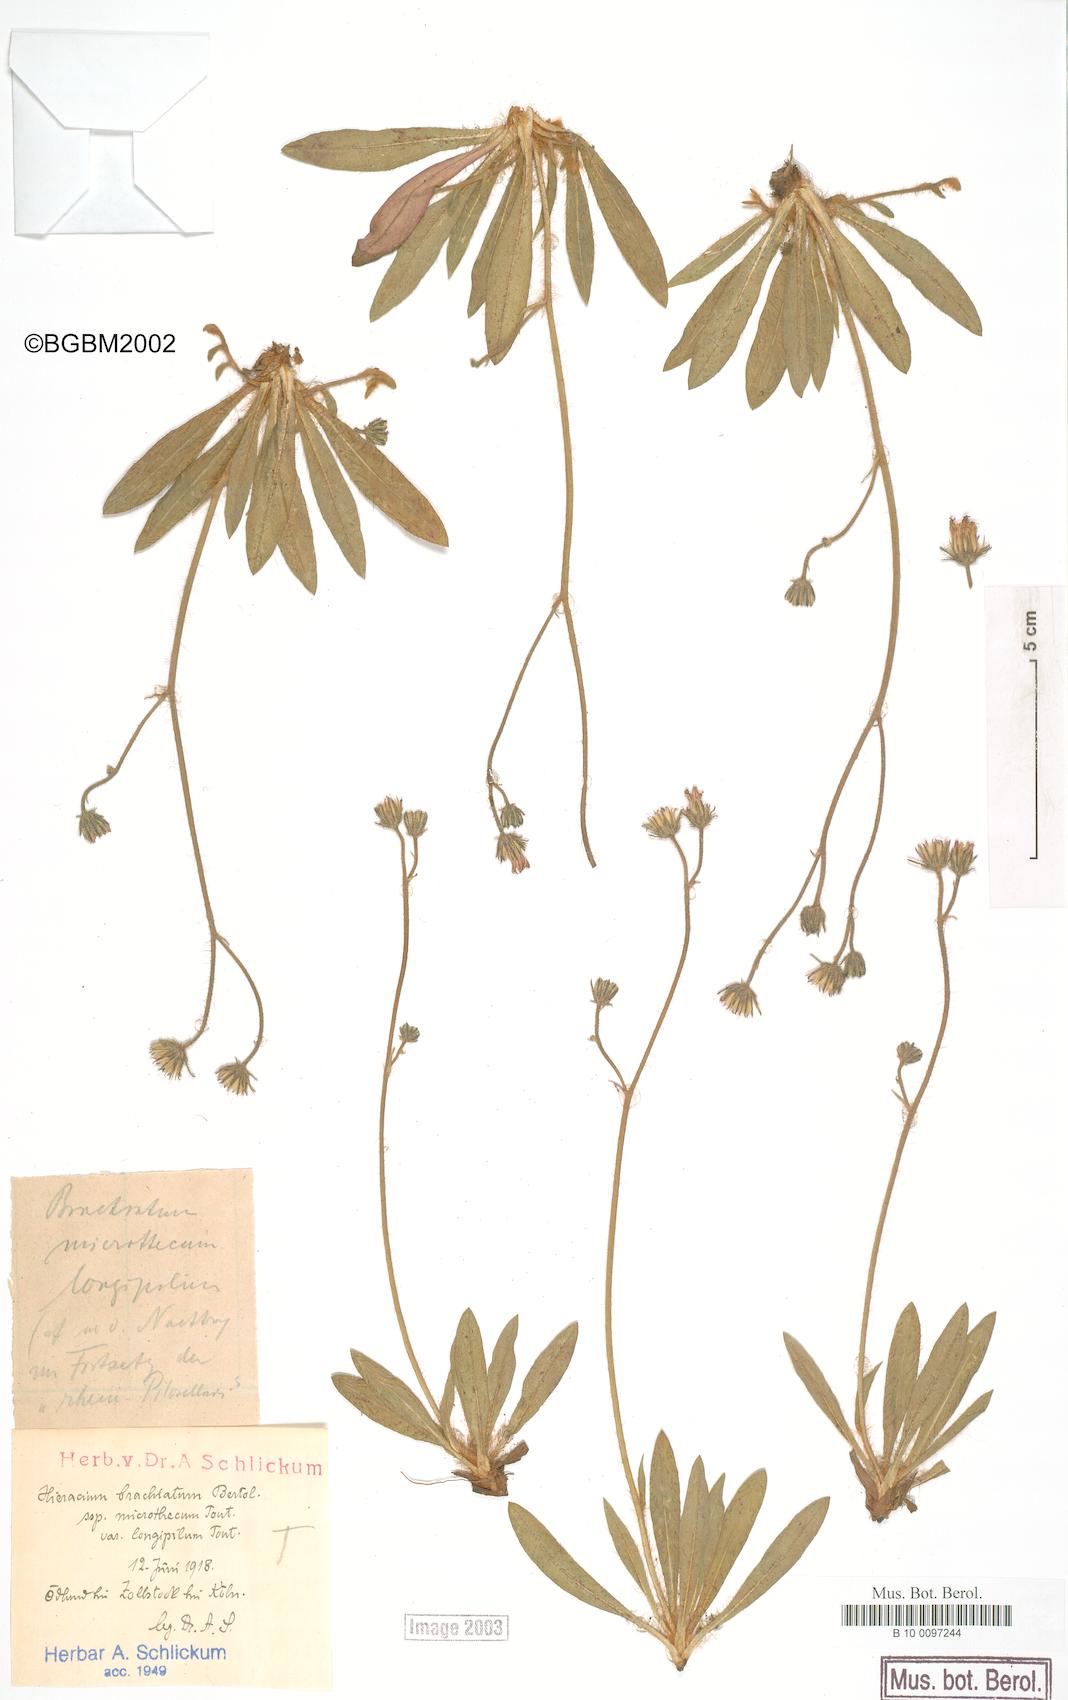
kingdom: Plantae
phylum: Tracheophyta
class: Magnoliopsida
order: Asterales
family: Asteraceae
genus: Pilosella
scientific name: Pilosella acutifolia
